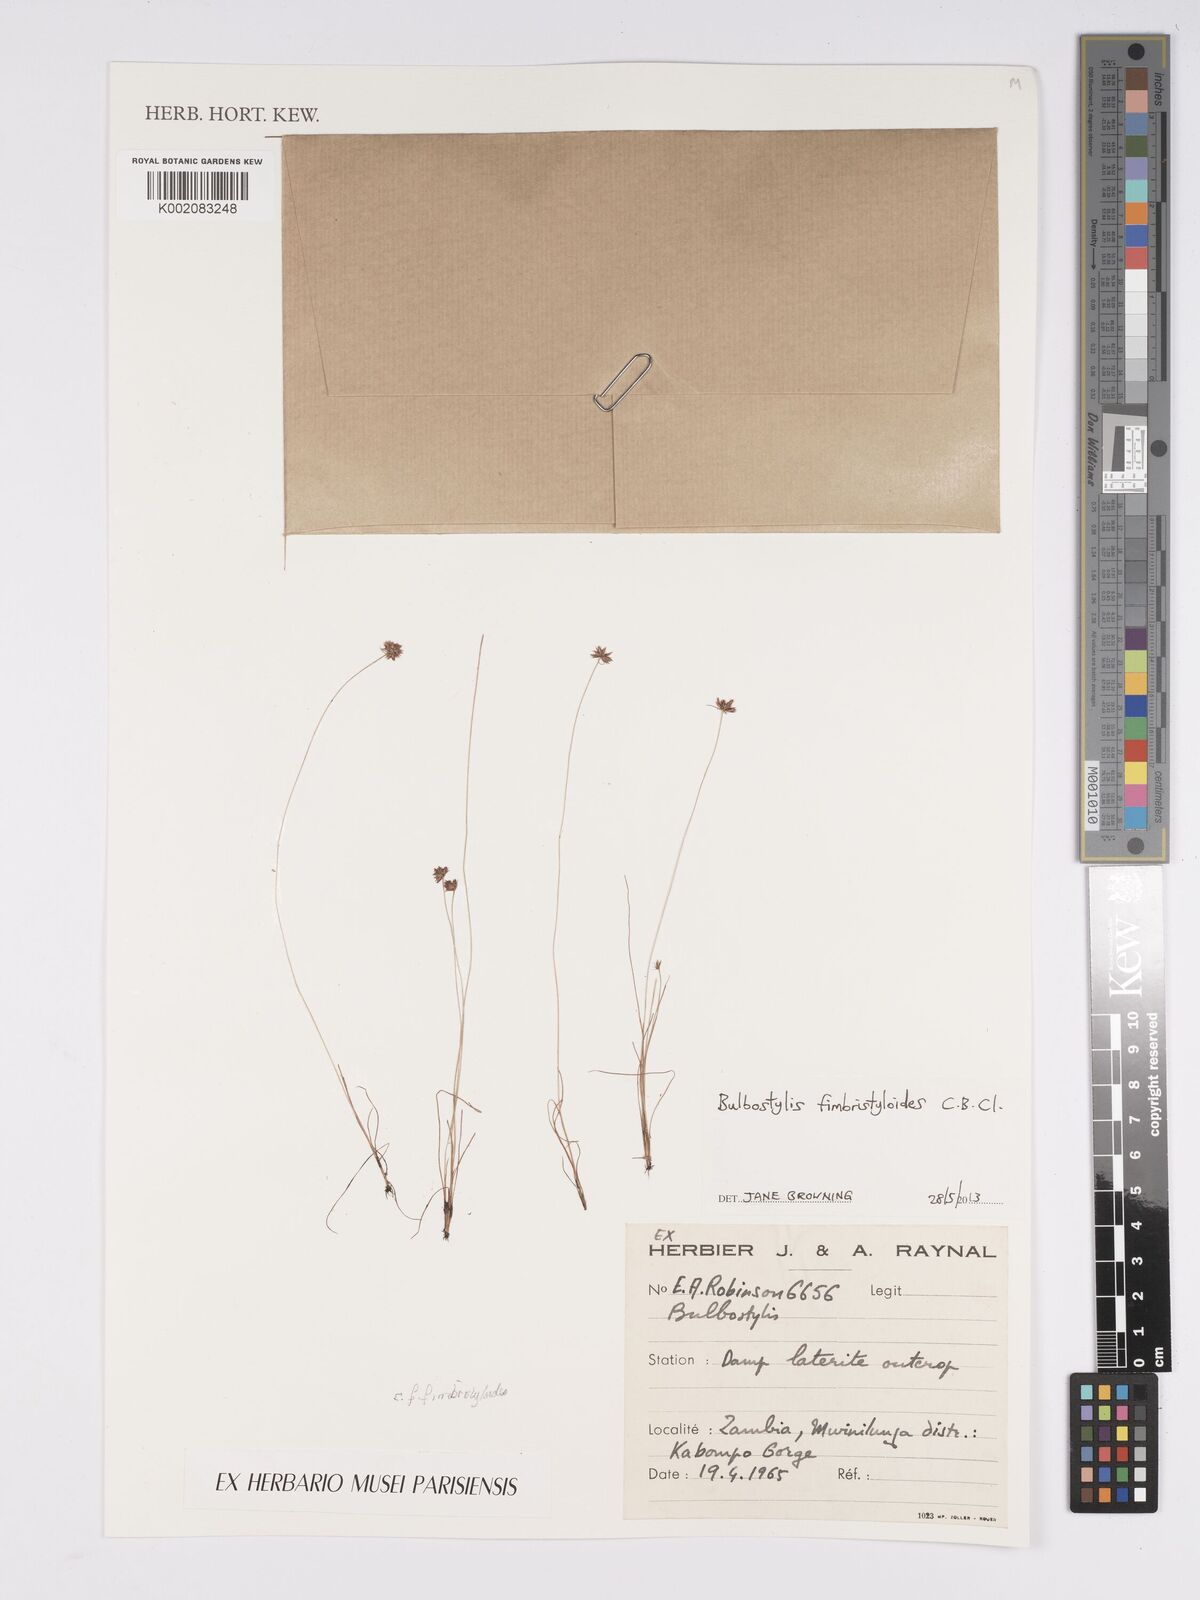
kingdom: Plantae
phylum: Tracheophyta
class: Liliopsida
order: Poales
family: Cyperaceae
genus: Bulbostylis
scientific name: Bulbostylis fimbristyloides
